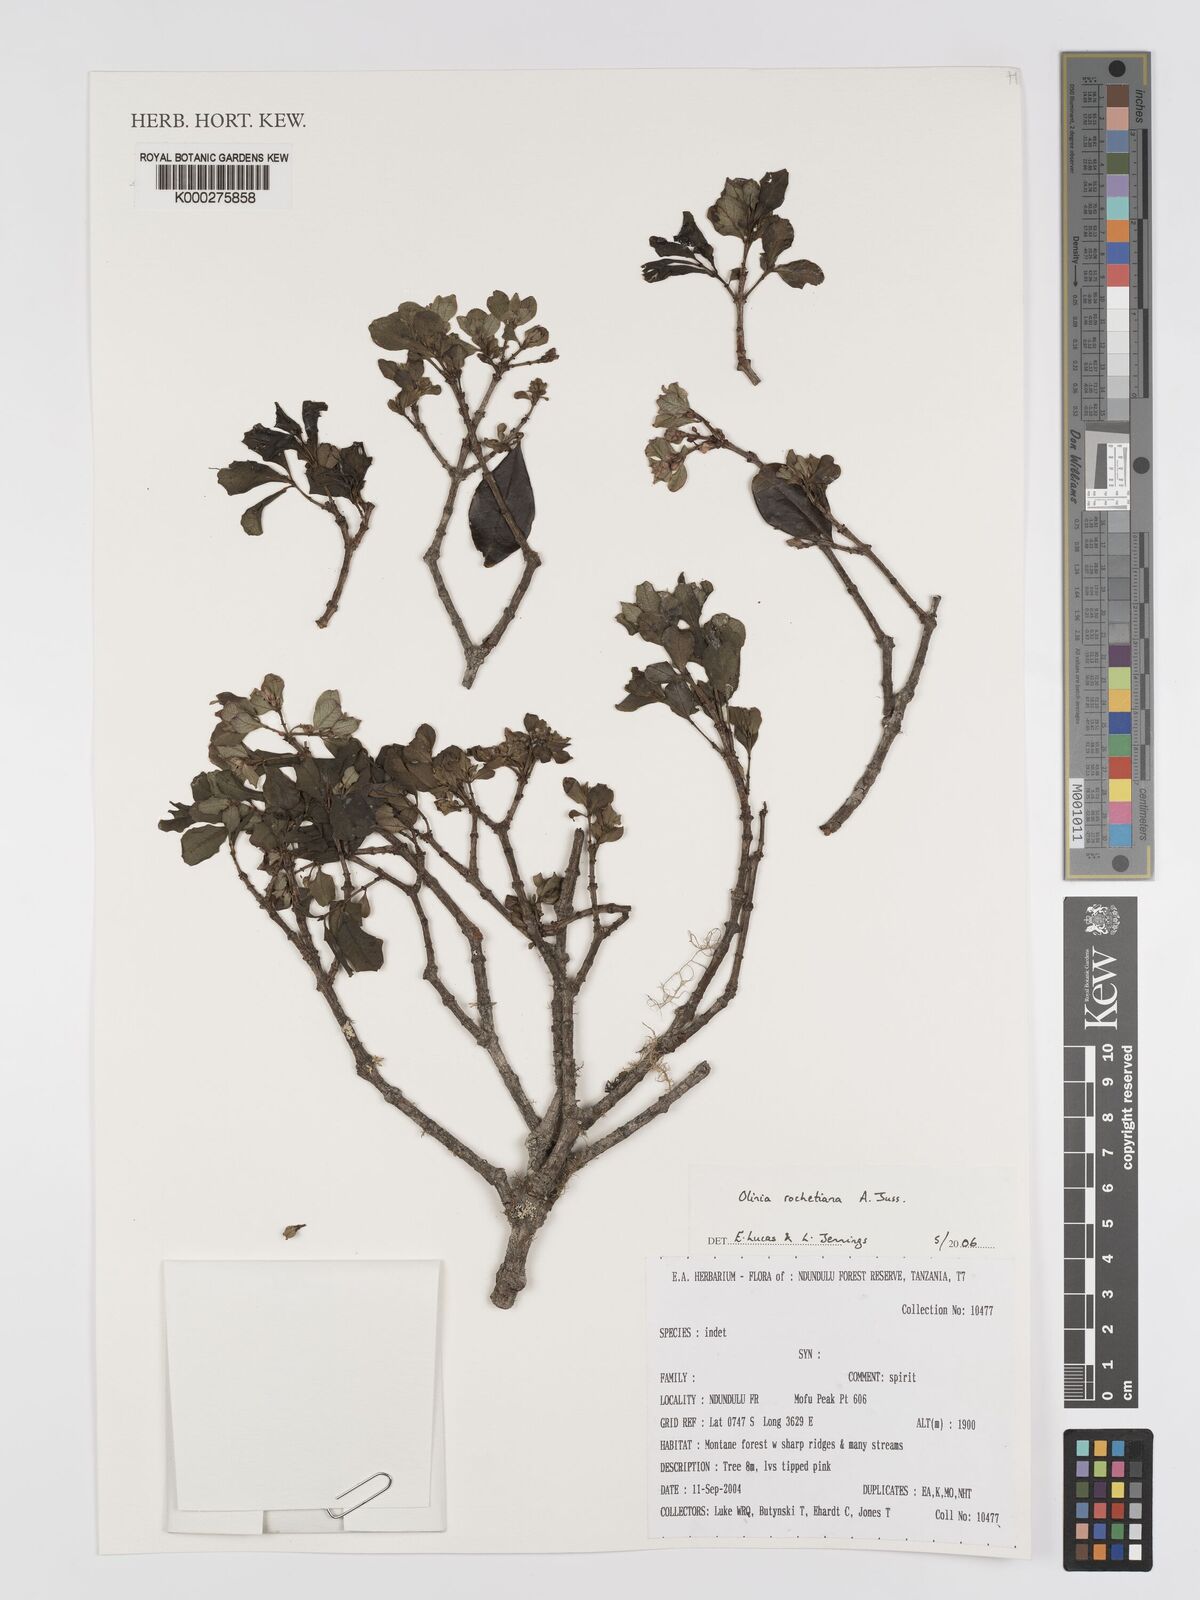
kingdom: Plantae
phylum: Tracheophyta
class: Magnoliopsida
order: Myrtales
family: Penaeaceae
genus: Olinia
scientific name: Olinia rochetiana
